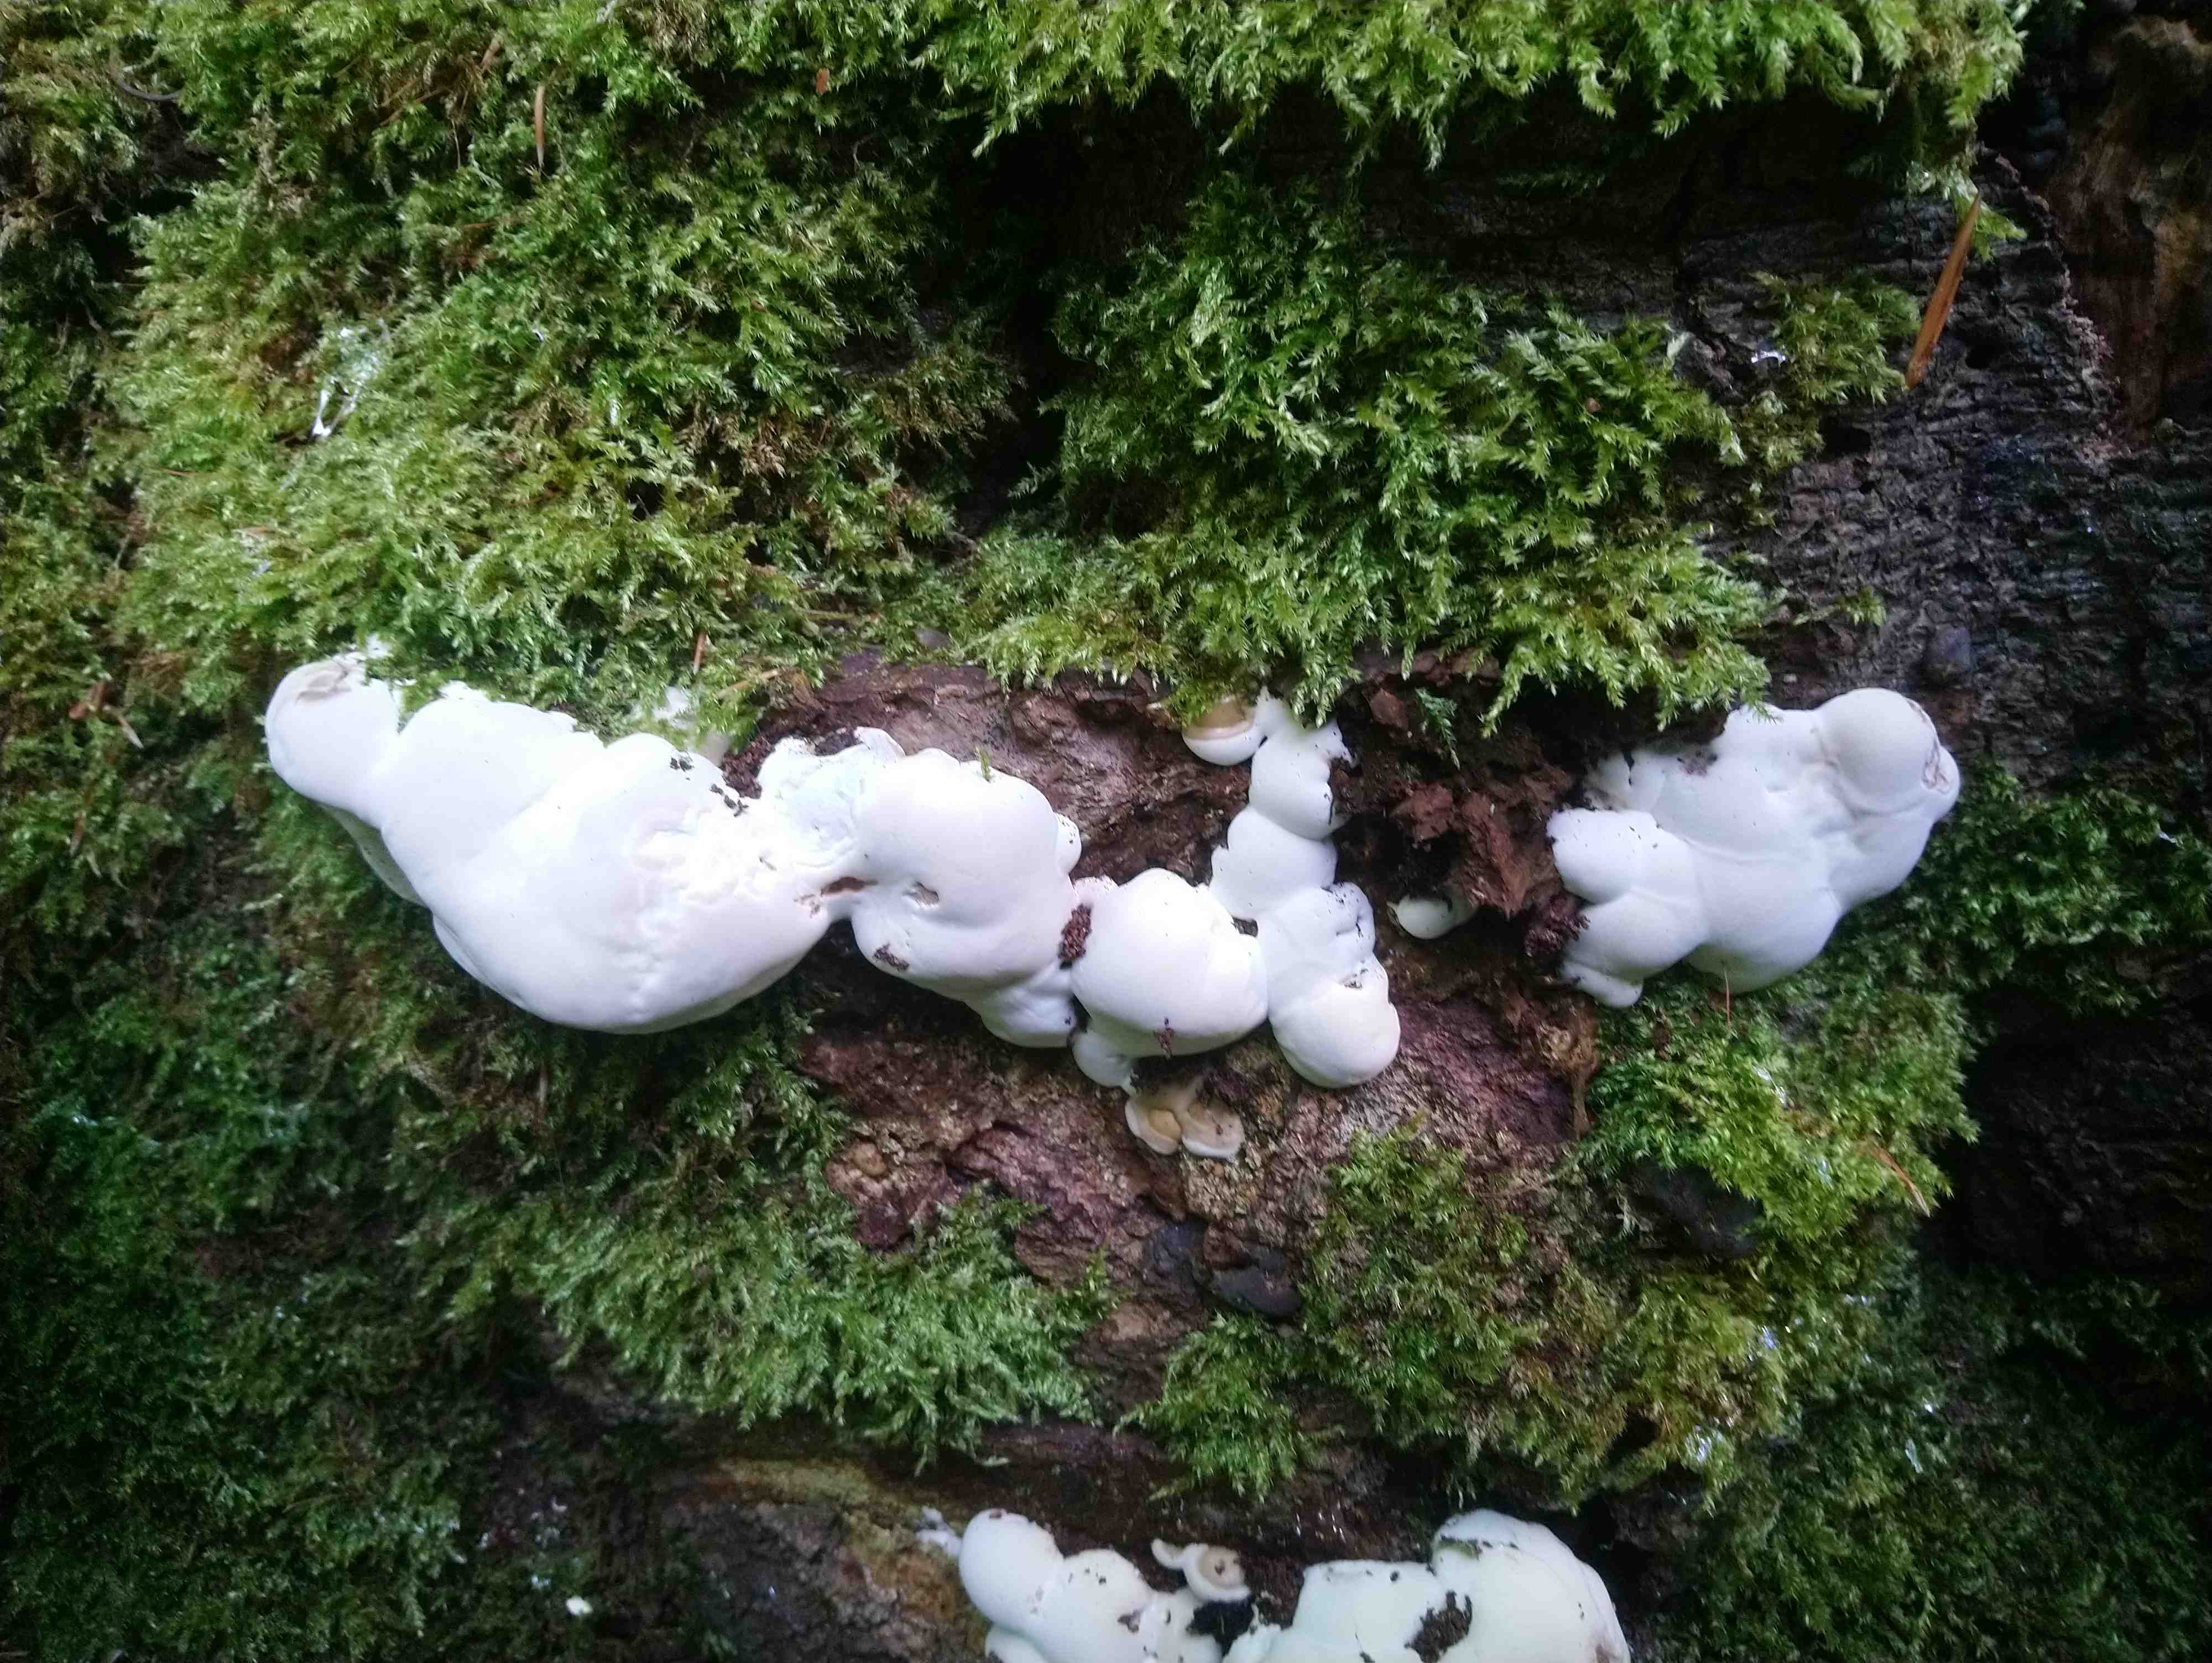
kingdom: Fungi
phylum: Basidiomycota
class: Agaricomycetes
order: Polyporales
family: Polyporaceae
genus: Ganoderma
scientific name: Ganoderma applanatum
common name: flad lakporesvamp
